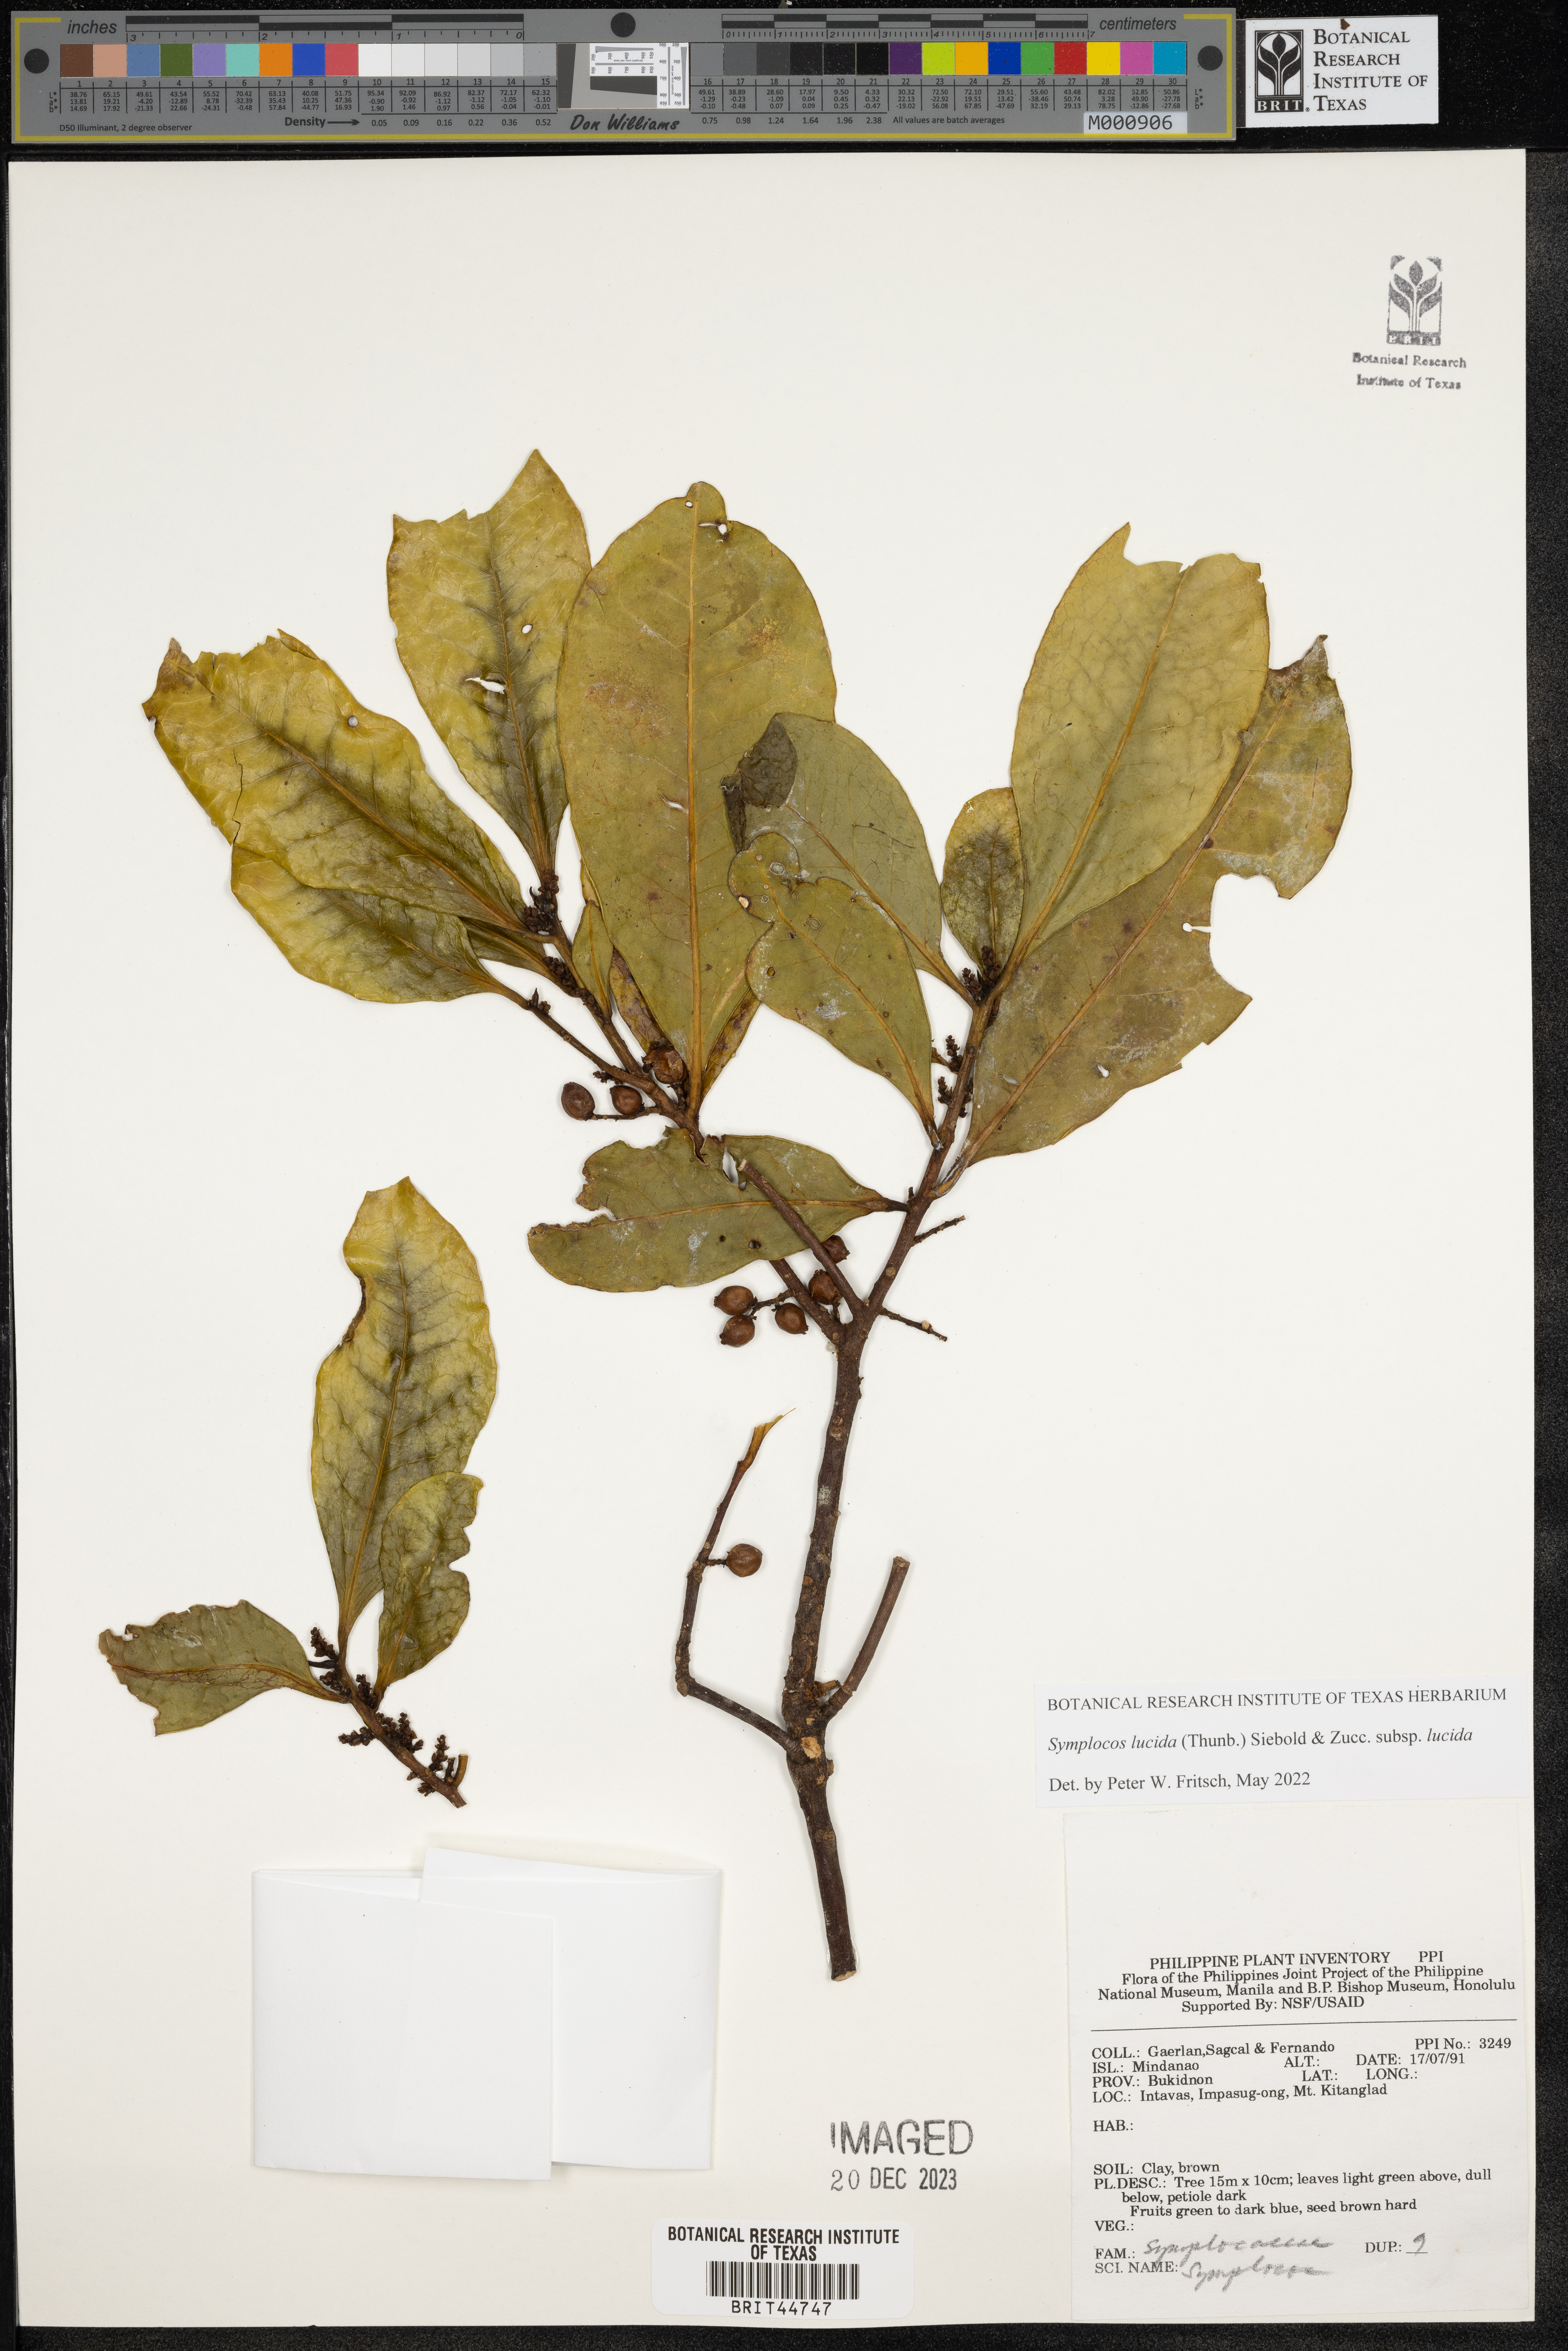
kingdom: Plantae
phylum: Tracheophyta
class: Magnoliopsida
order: Ericales
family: Symplocaceae
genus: Symplocos
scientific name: Symplocos
